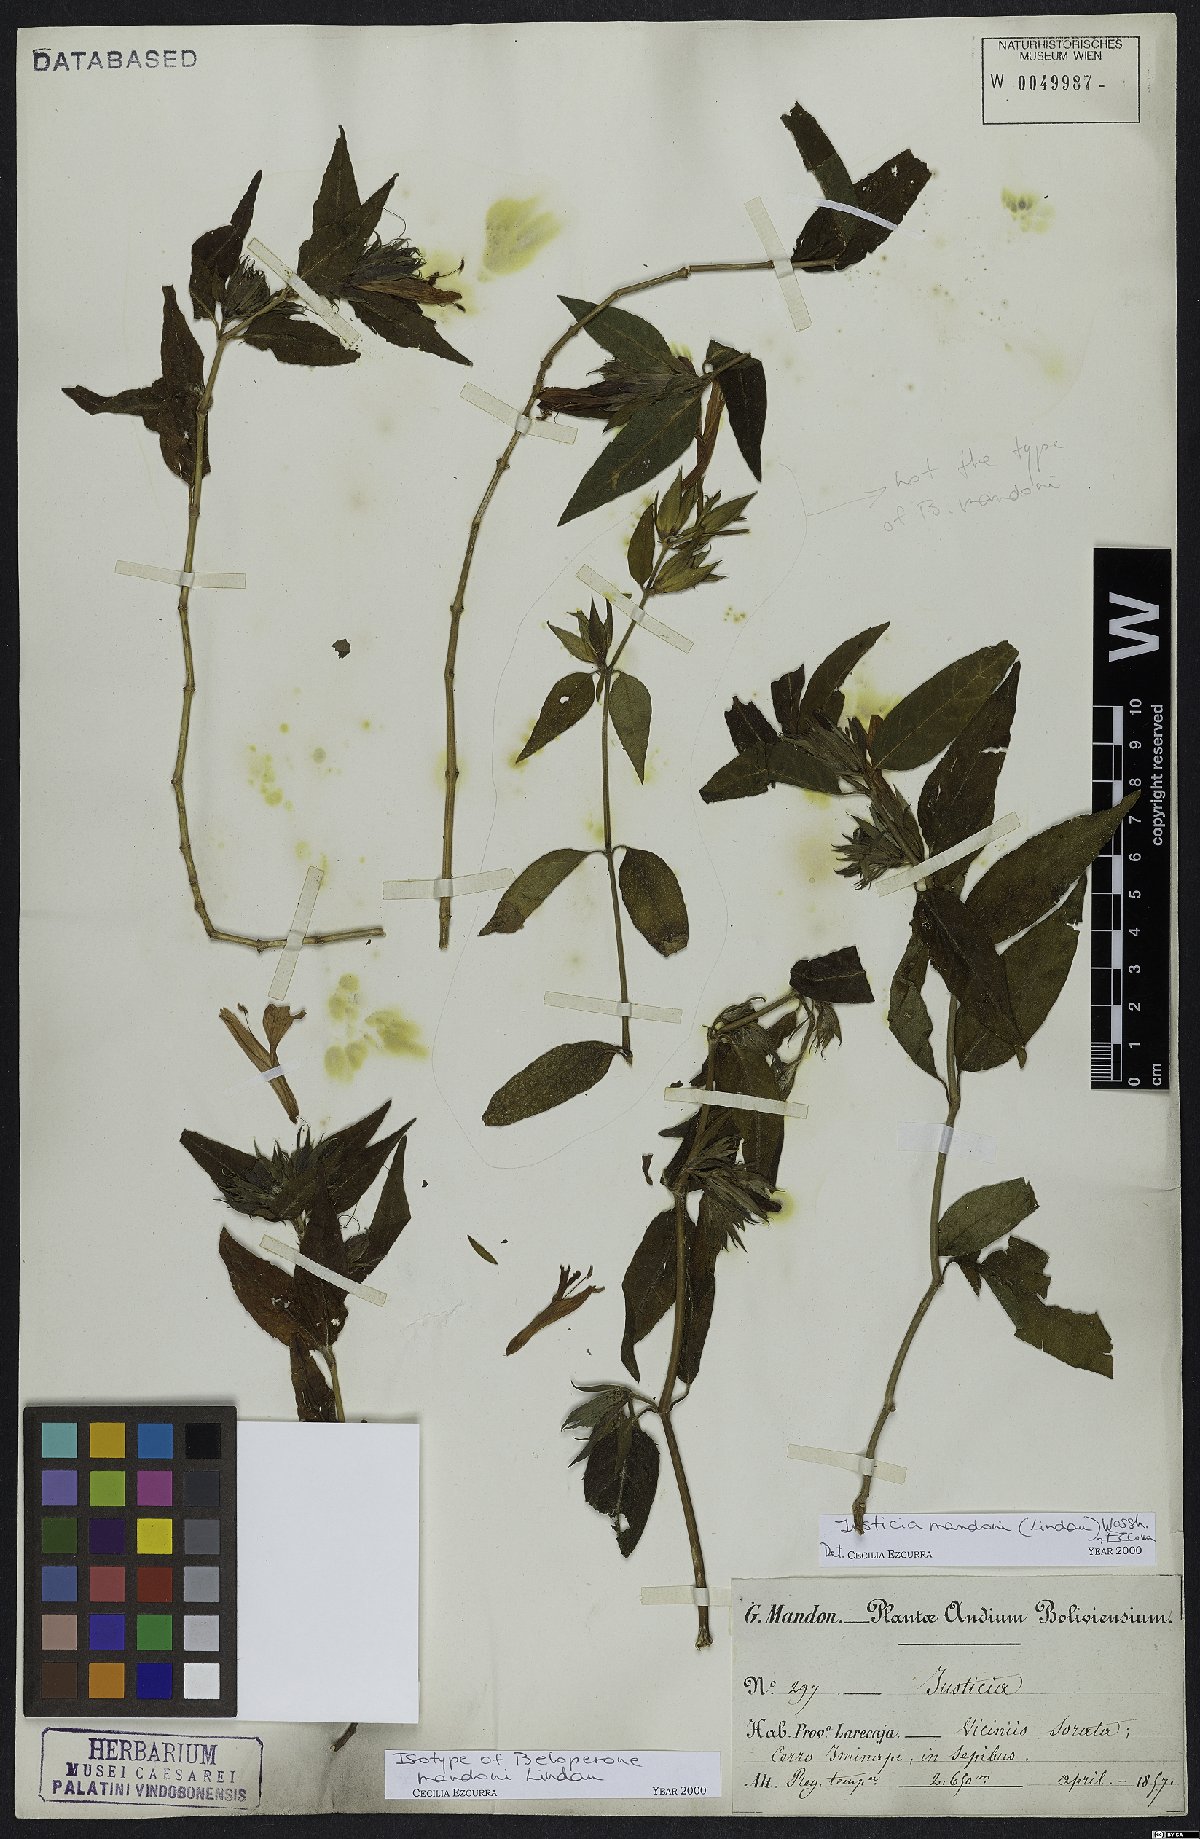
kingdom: Plantae
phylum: Tracheophyta
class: Magnoliopsida
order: Lamiales
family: Acanthaceae
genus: Justicia
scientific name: Justicia mandonii
